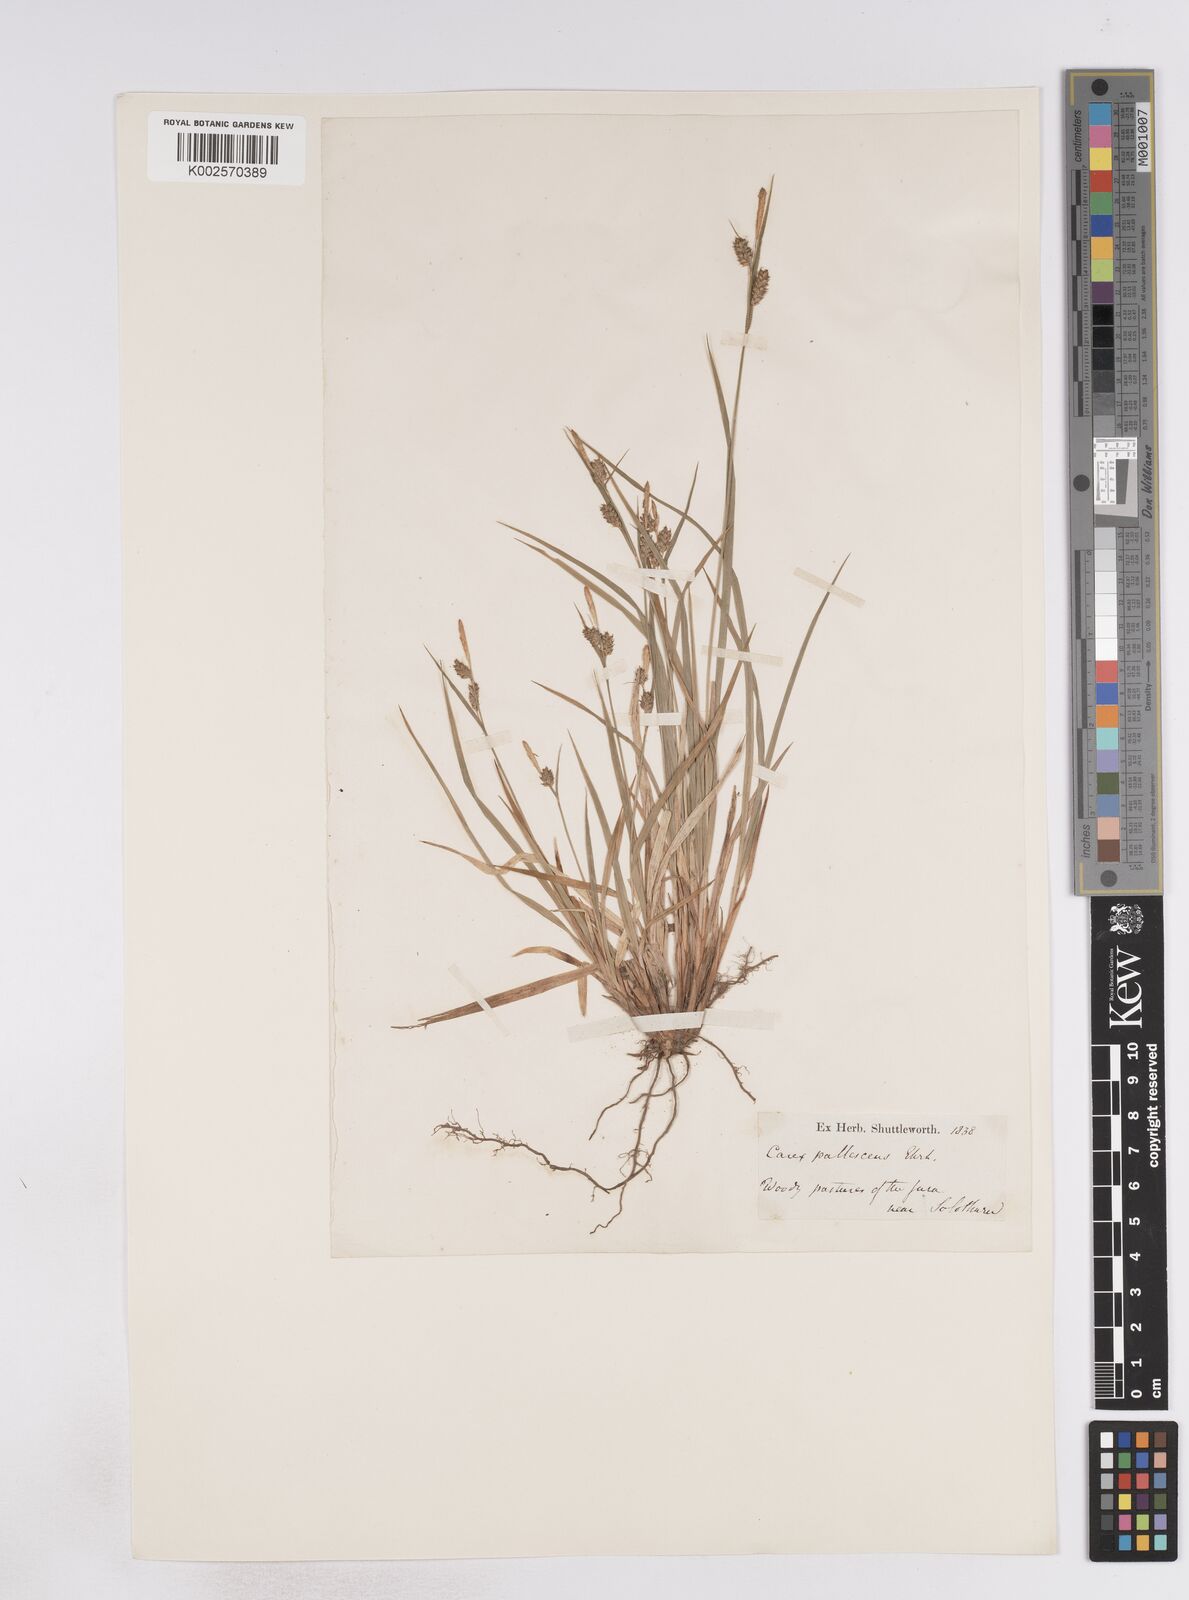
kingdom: Plantae
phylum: Tracheophyta
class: Liliopsida
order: Poales
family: Cyperaceae
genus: Carex
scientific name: Carex pallescens
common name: Pale sedge
